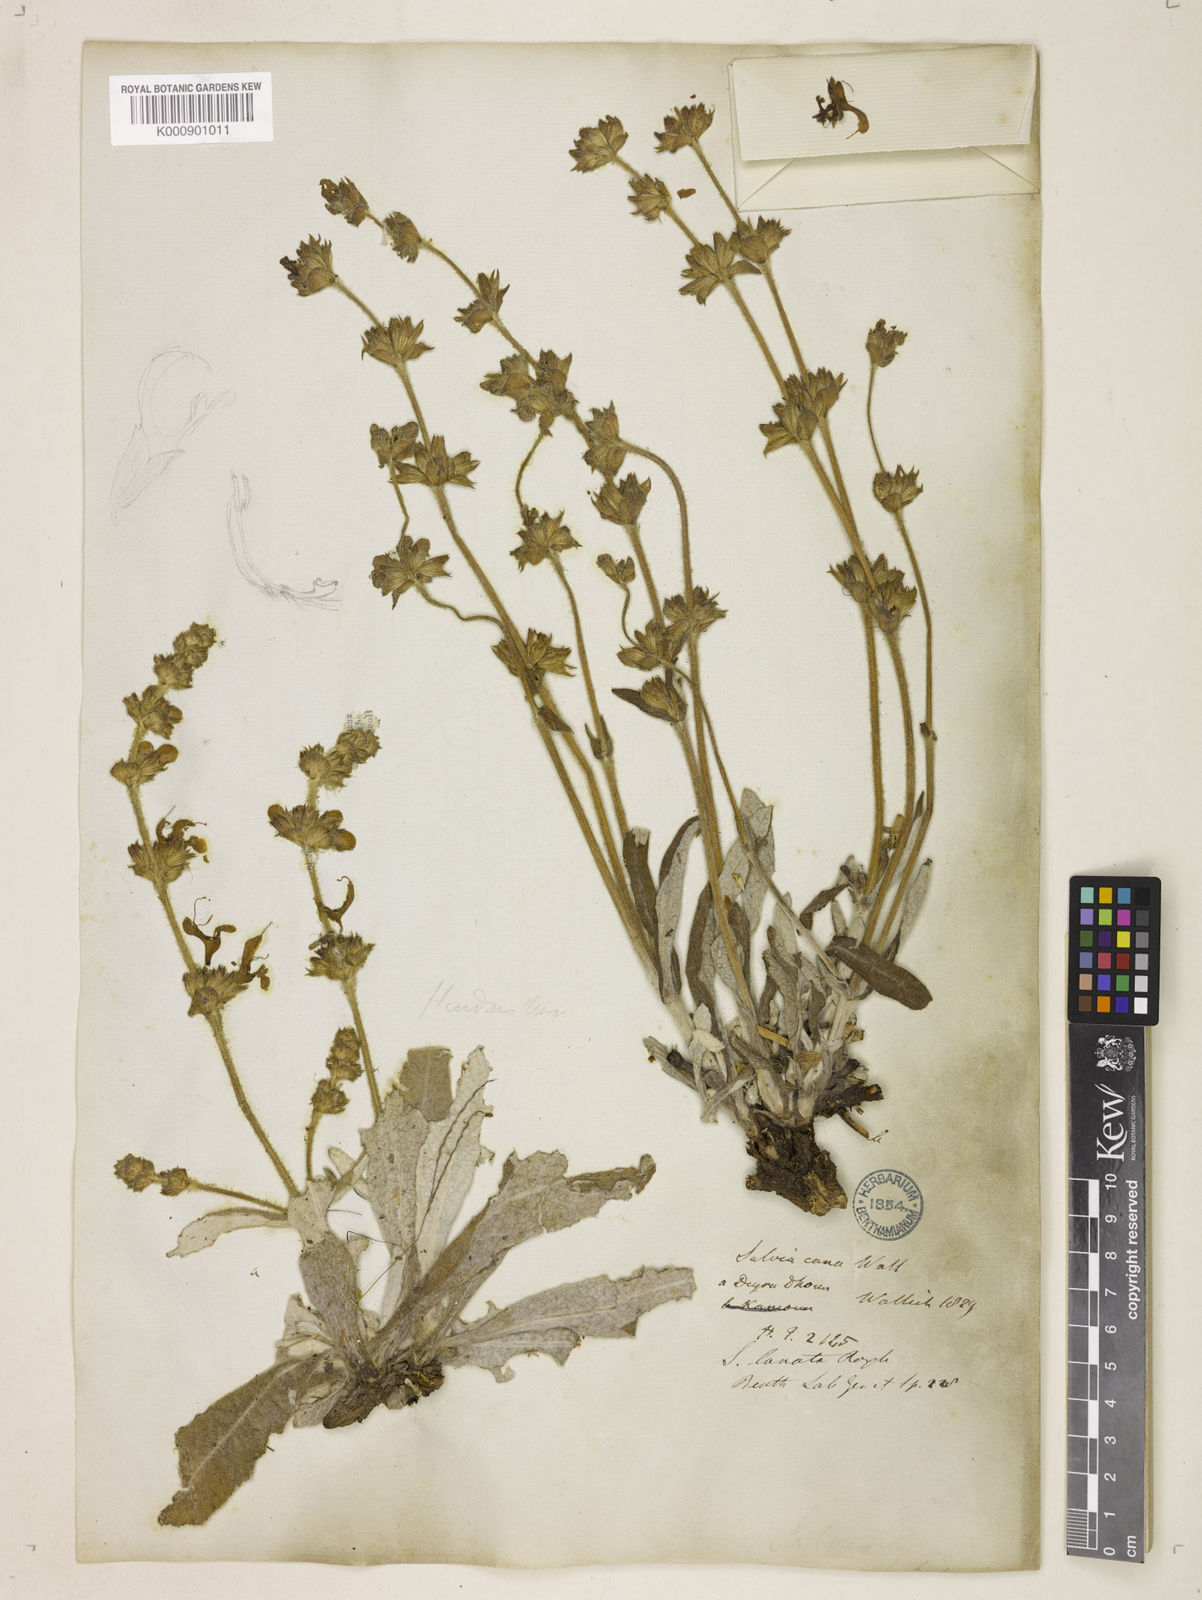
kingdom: Plantae
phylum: Tracheophyta
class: Magnoliopsida
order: Lamiales
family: Lamiaceae
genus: Salvia
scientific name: Salvia
